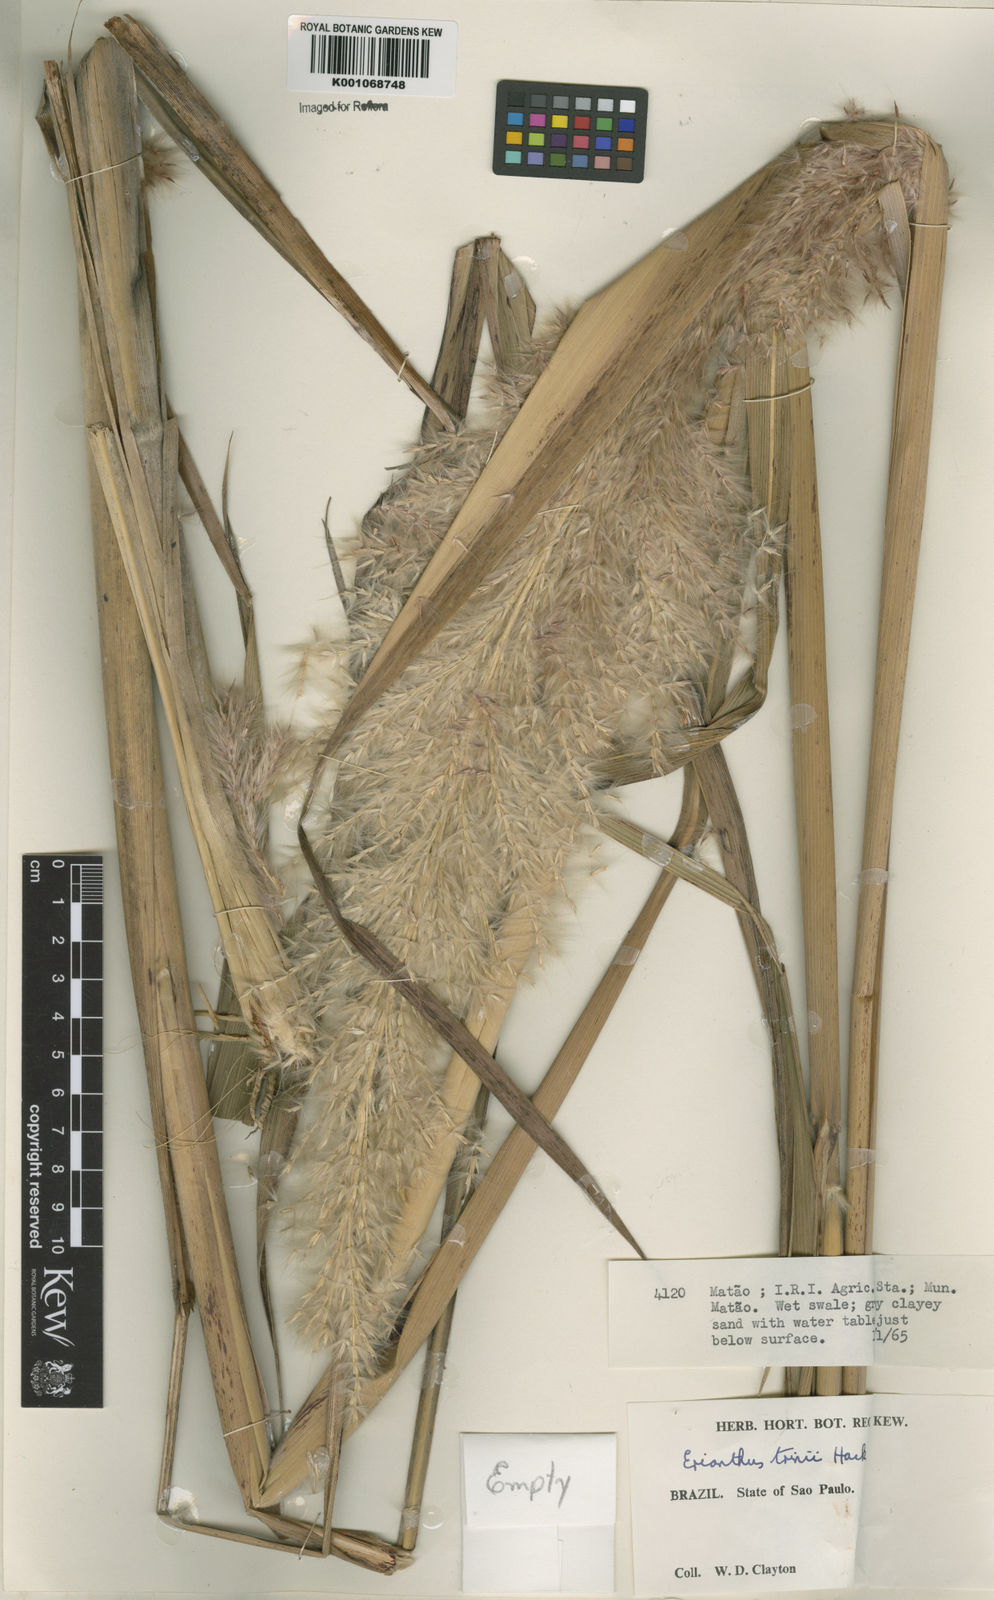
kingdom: Plantae
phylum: Tracheophyta
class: Liliopsida
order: Poales
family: Poaceae
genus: Erianthus
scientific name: Erianthus trinii
